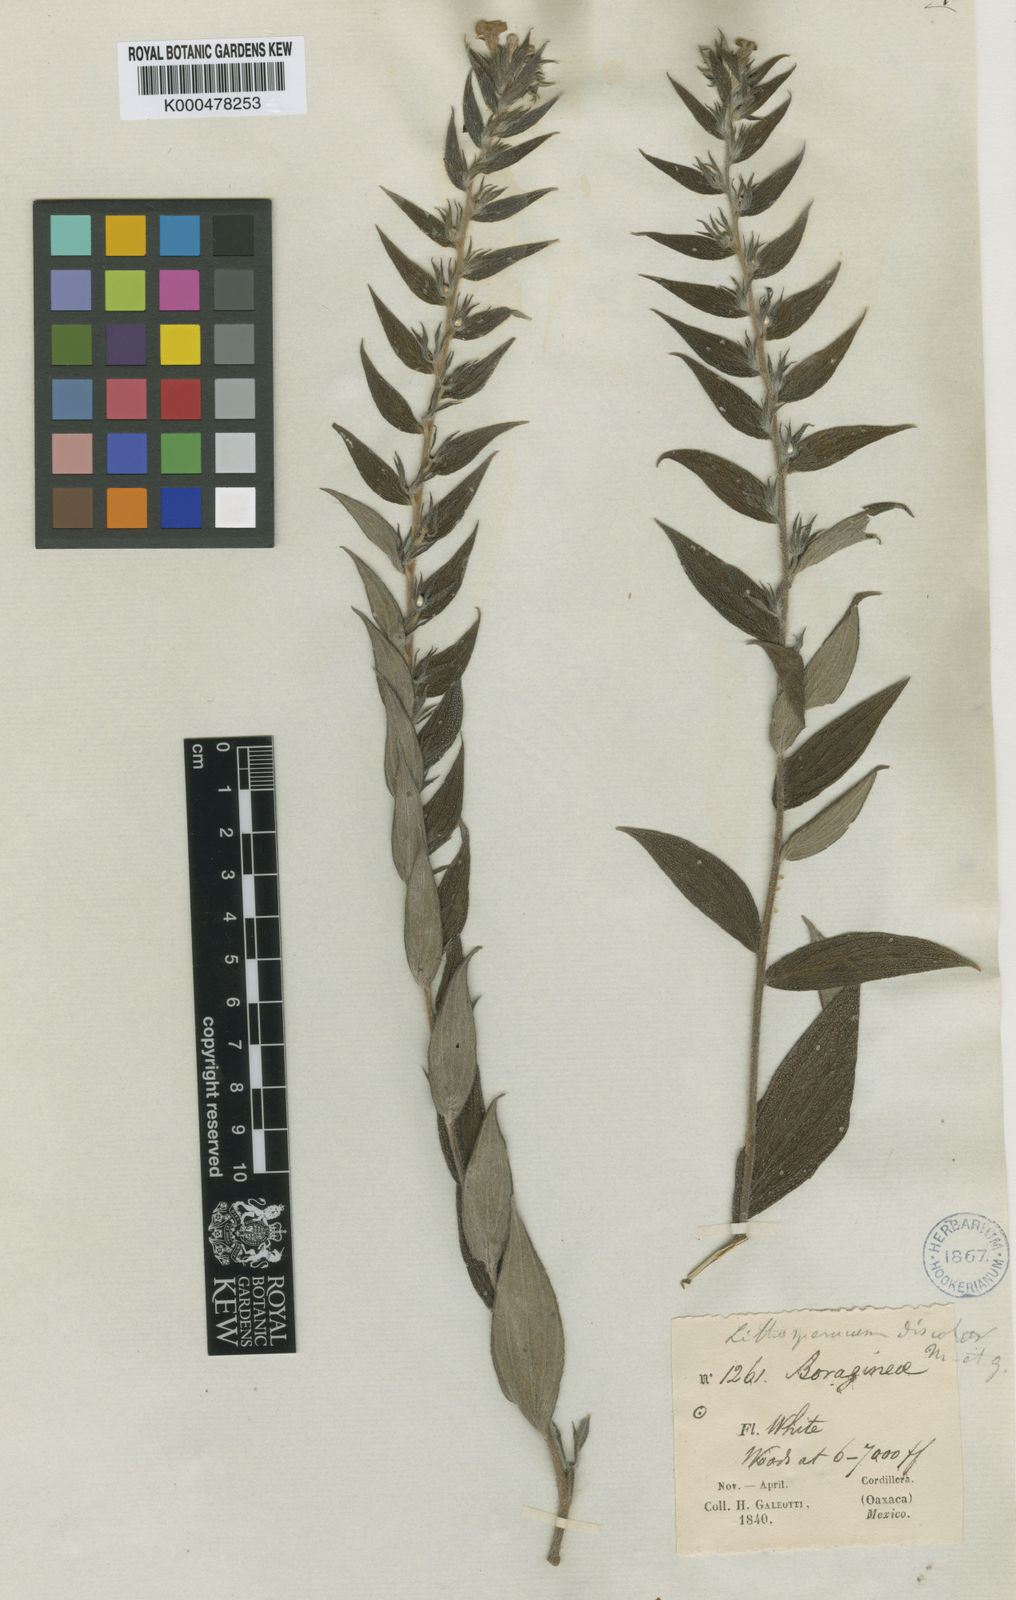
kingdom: Plantae
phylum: Tracheophyta
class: Magnoliopsida
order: Boraginales
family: Boraginaceae
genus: Lithospermum
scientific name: Lithospermum discolor
